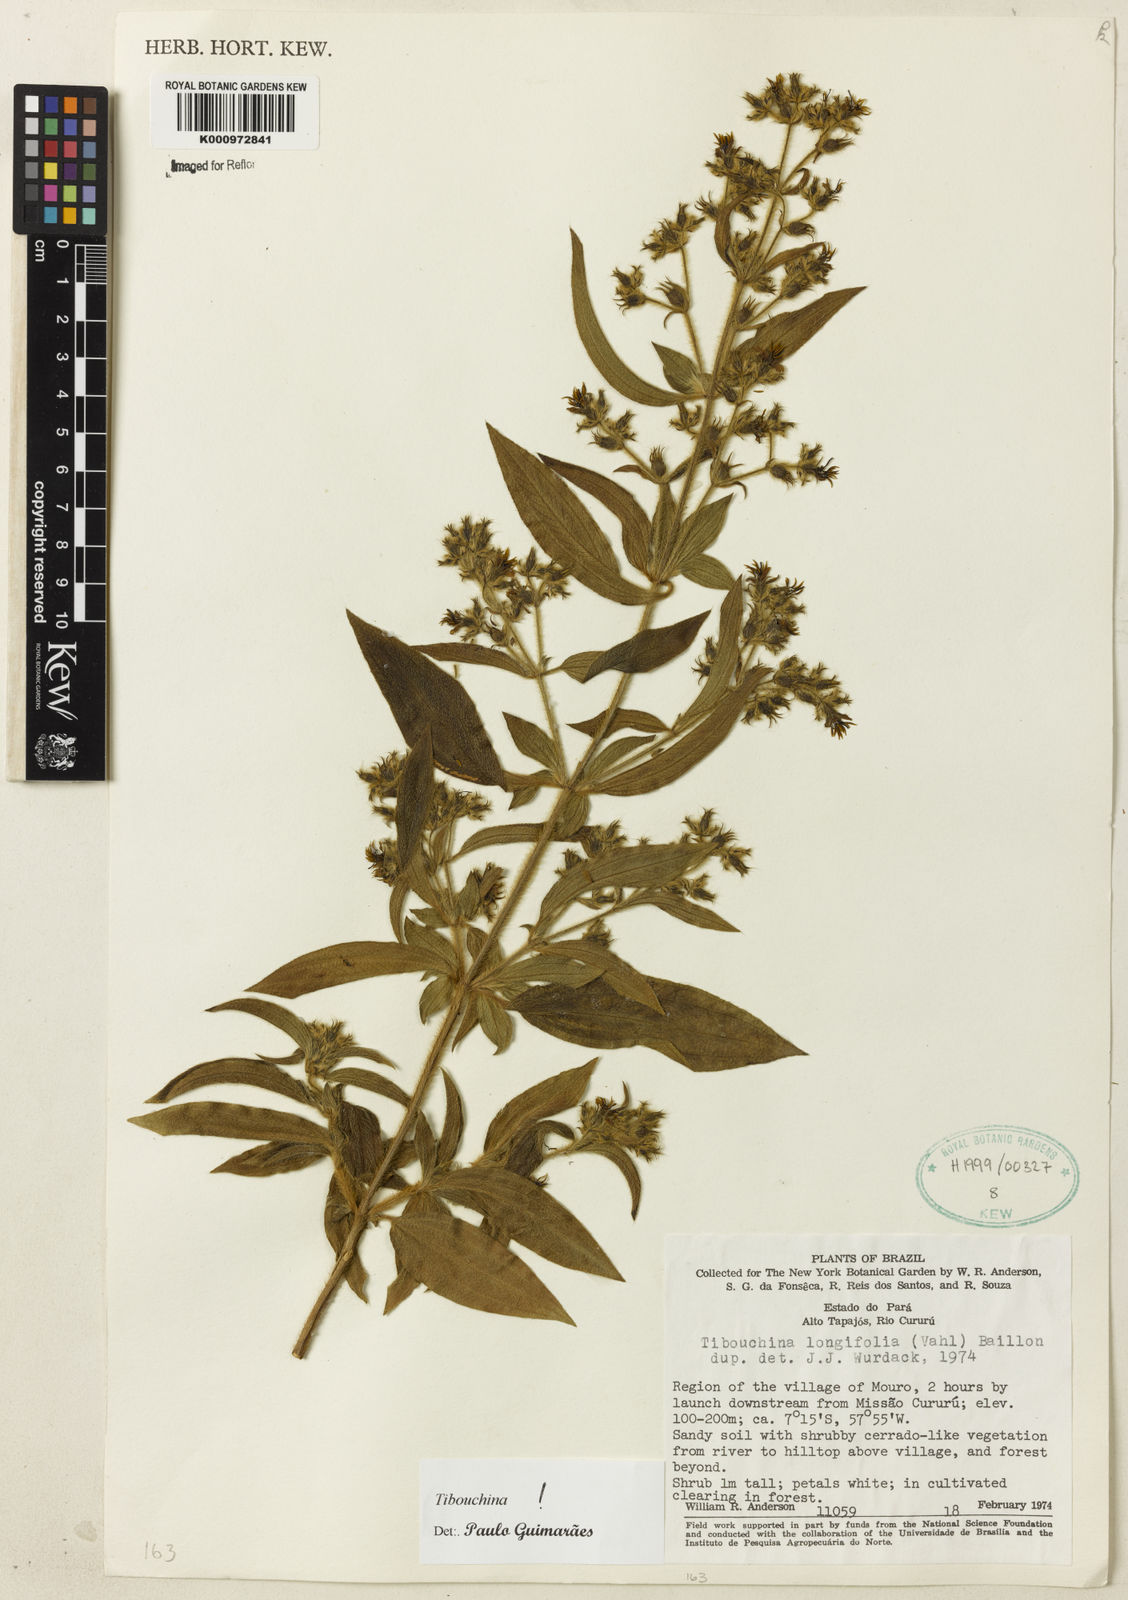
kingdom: Plantae
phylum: Tracheophyta
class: Magnoliopsida
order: Myrtales
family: Melastomataceae
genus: Chaetogastra
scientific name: Chaetogastra longifolia
